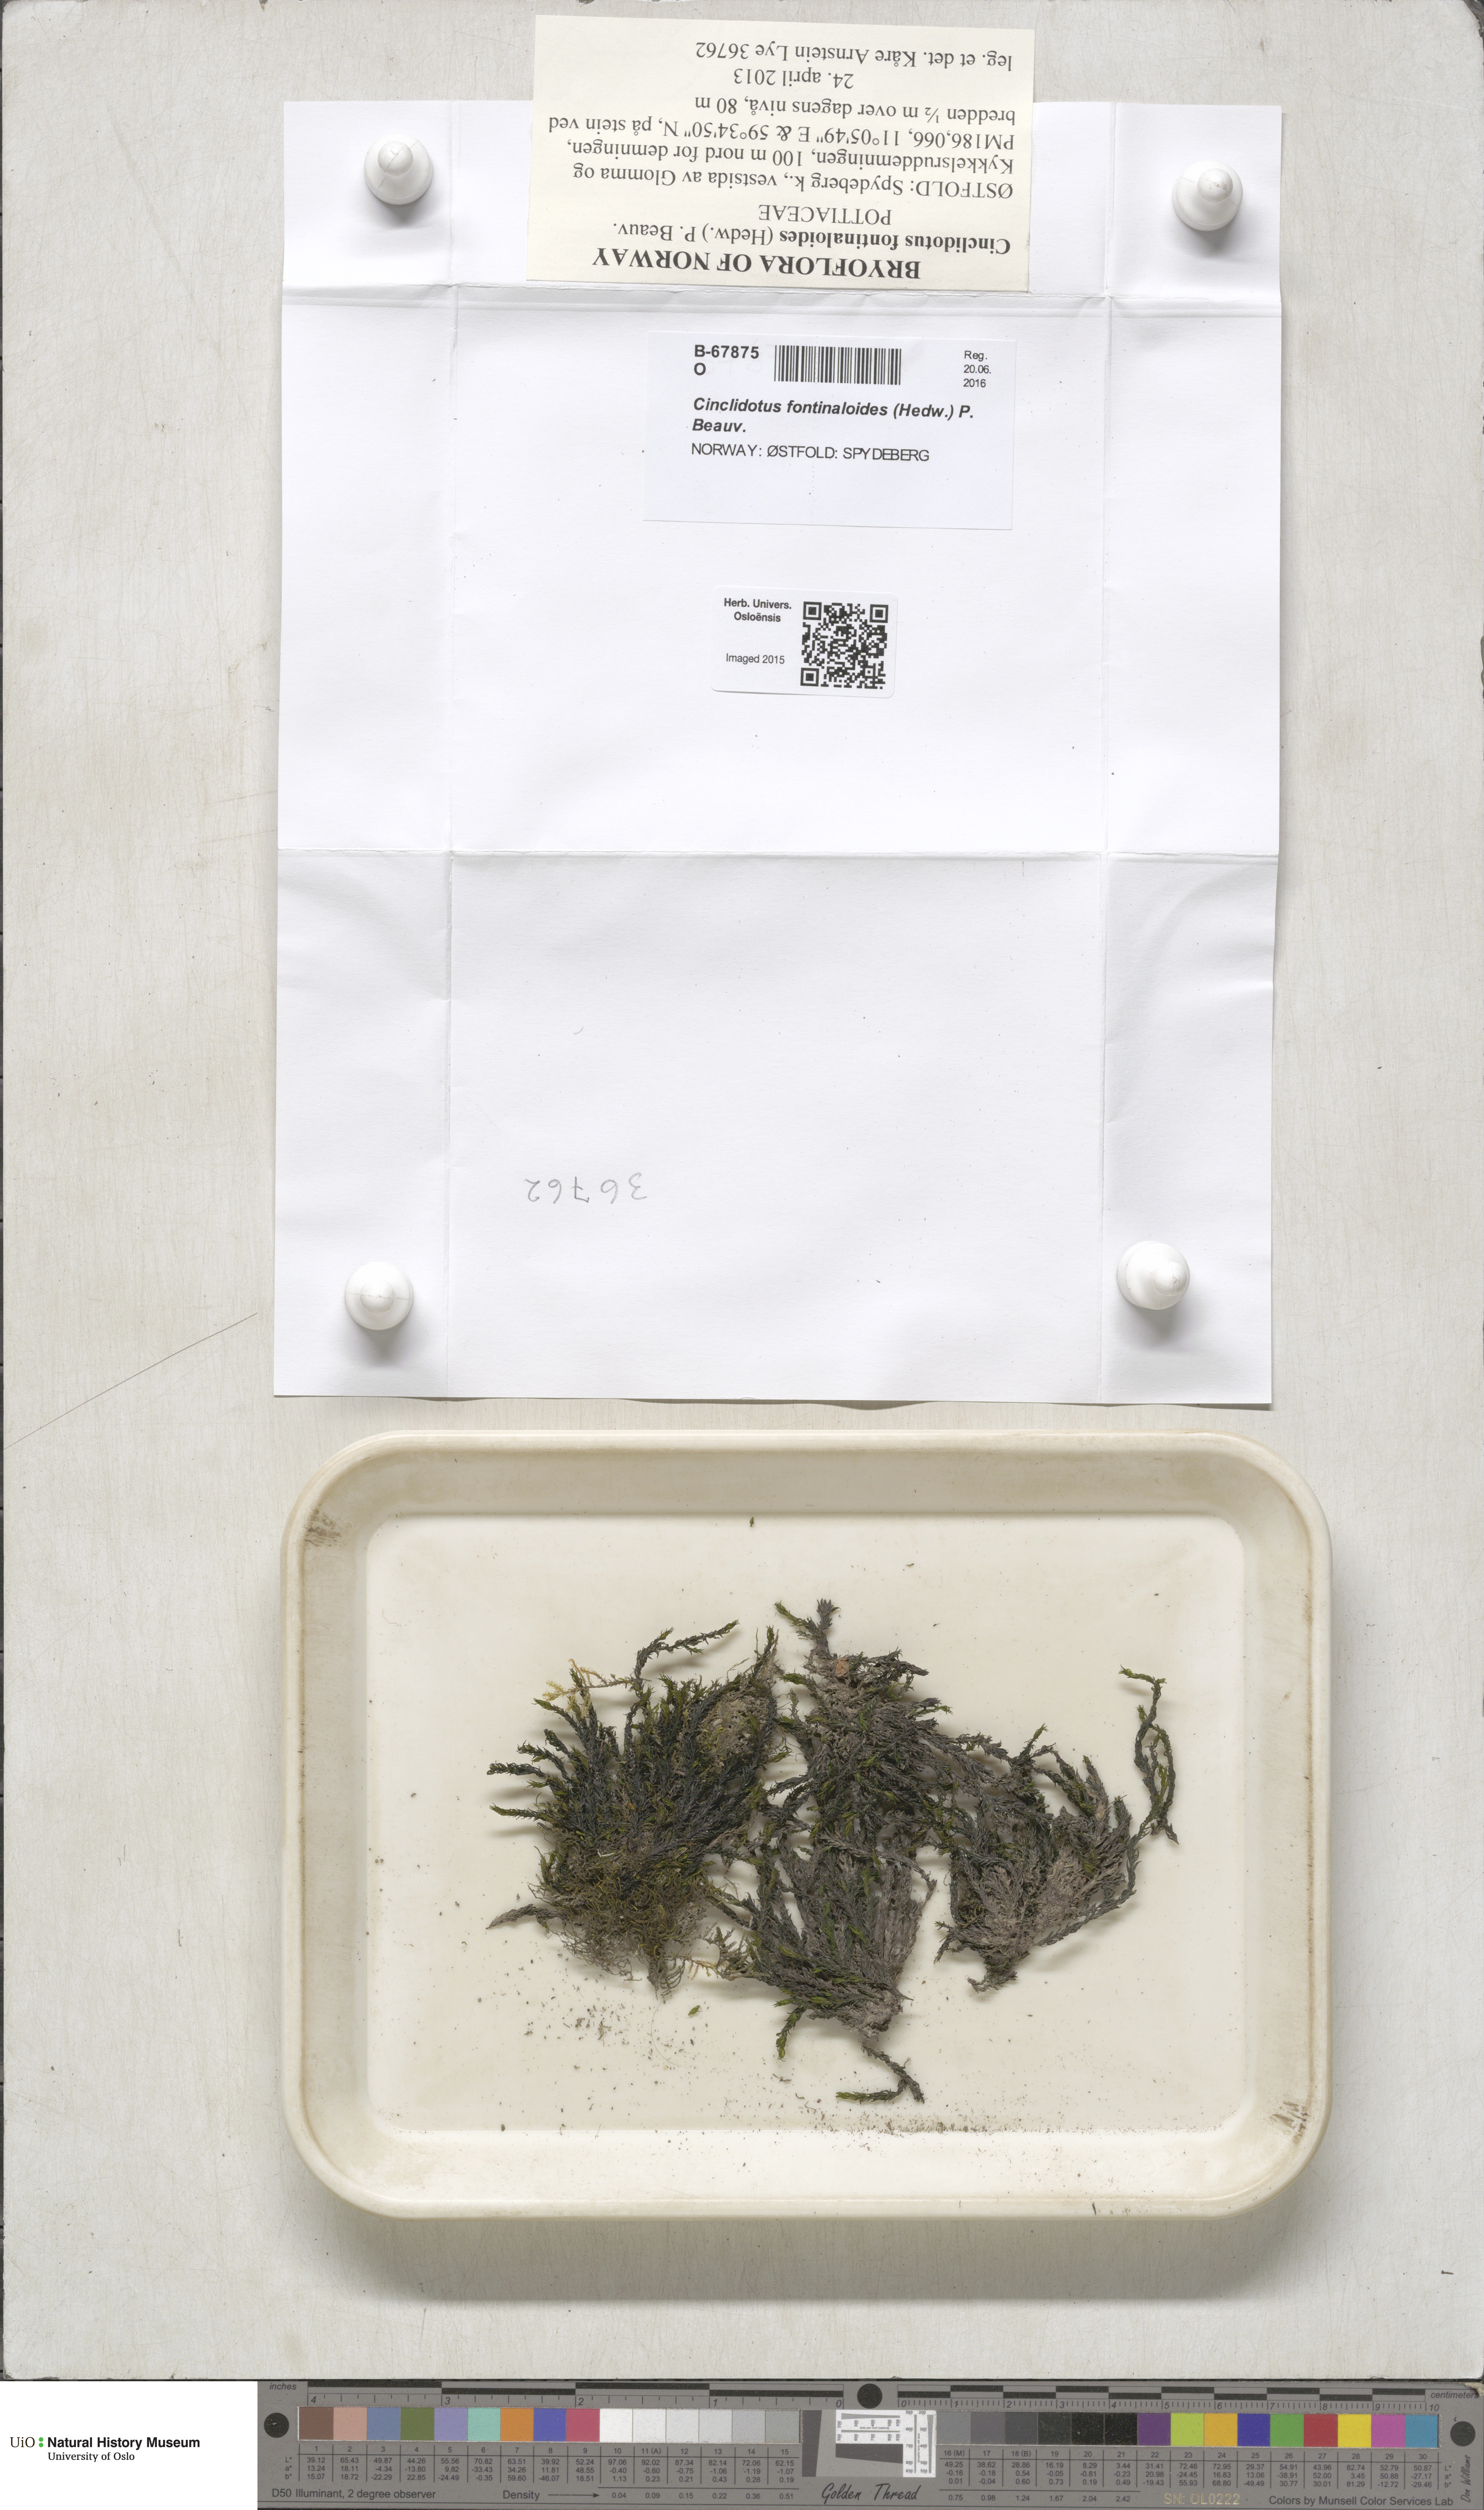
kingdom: Plantae
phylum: Bryophyta
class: Bryopsida
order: Pottiales
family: Pottiaceae
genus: Cinclidotus
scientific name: Cinclidotus fontinaloides
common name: Smaller lattice-moss
